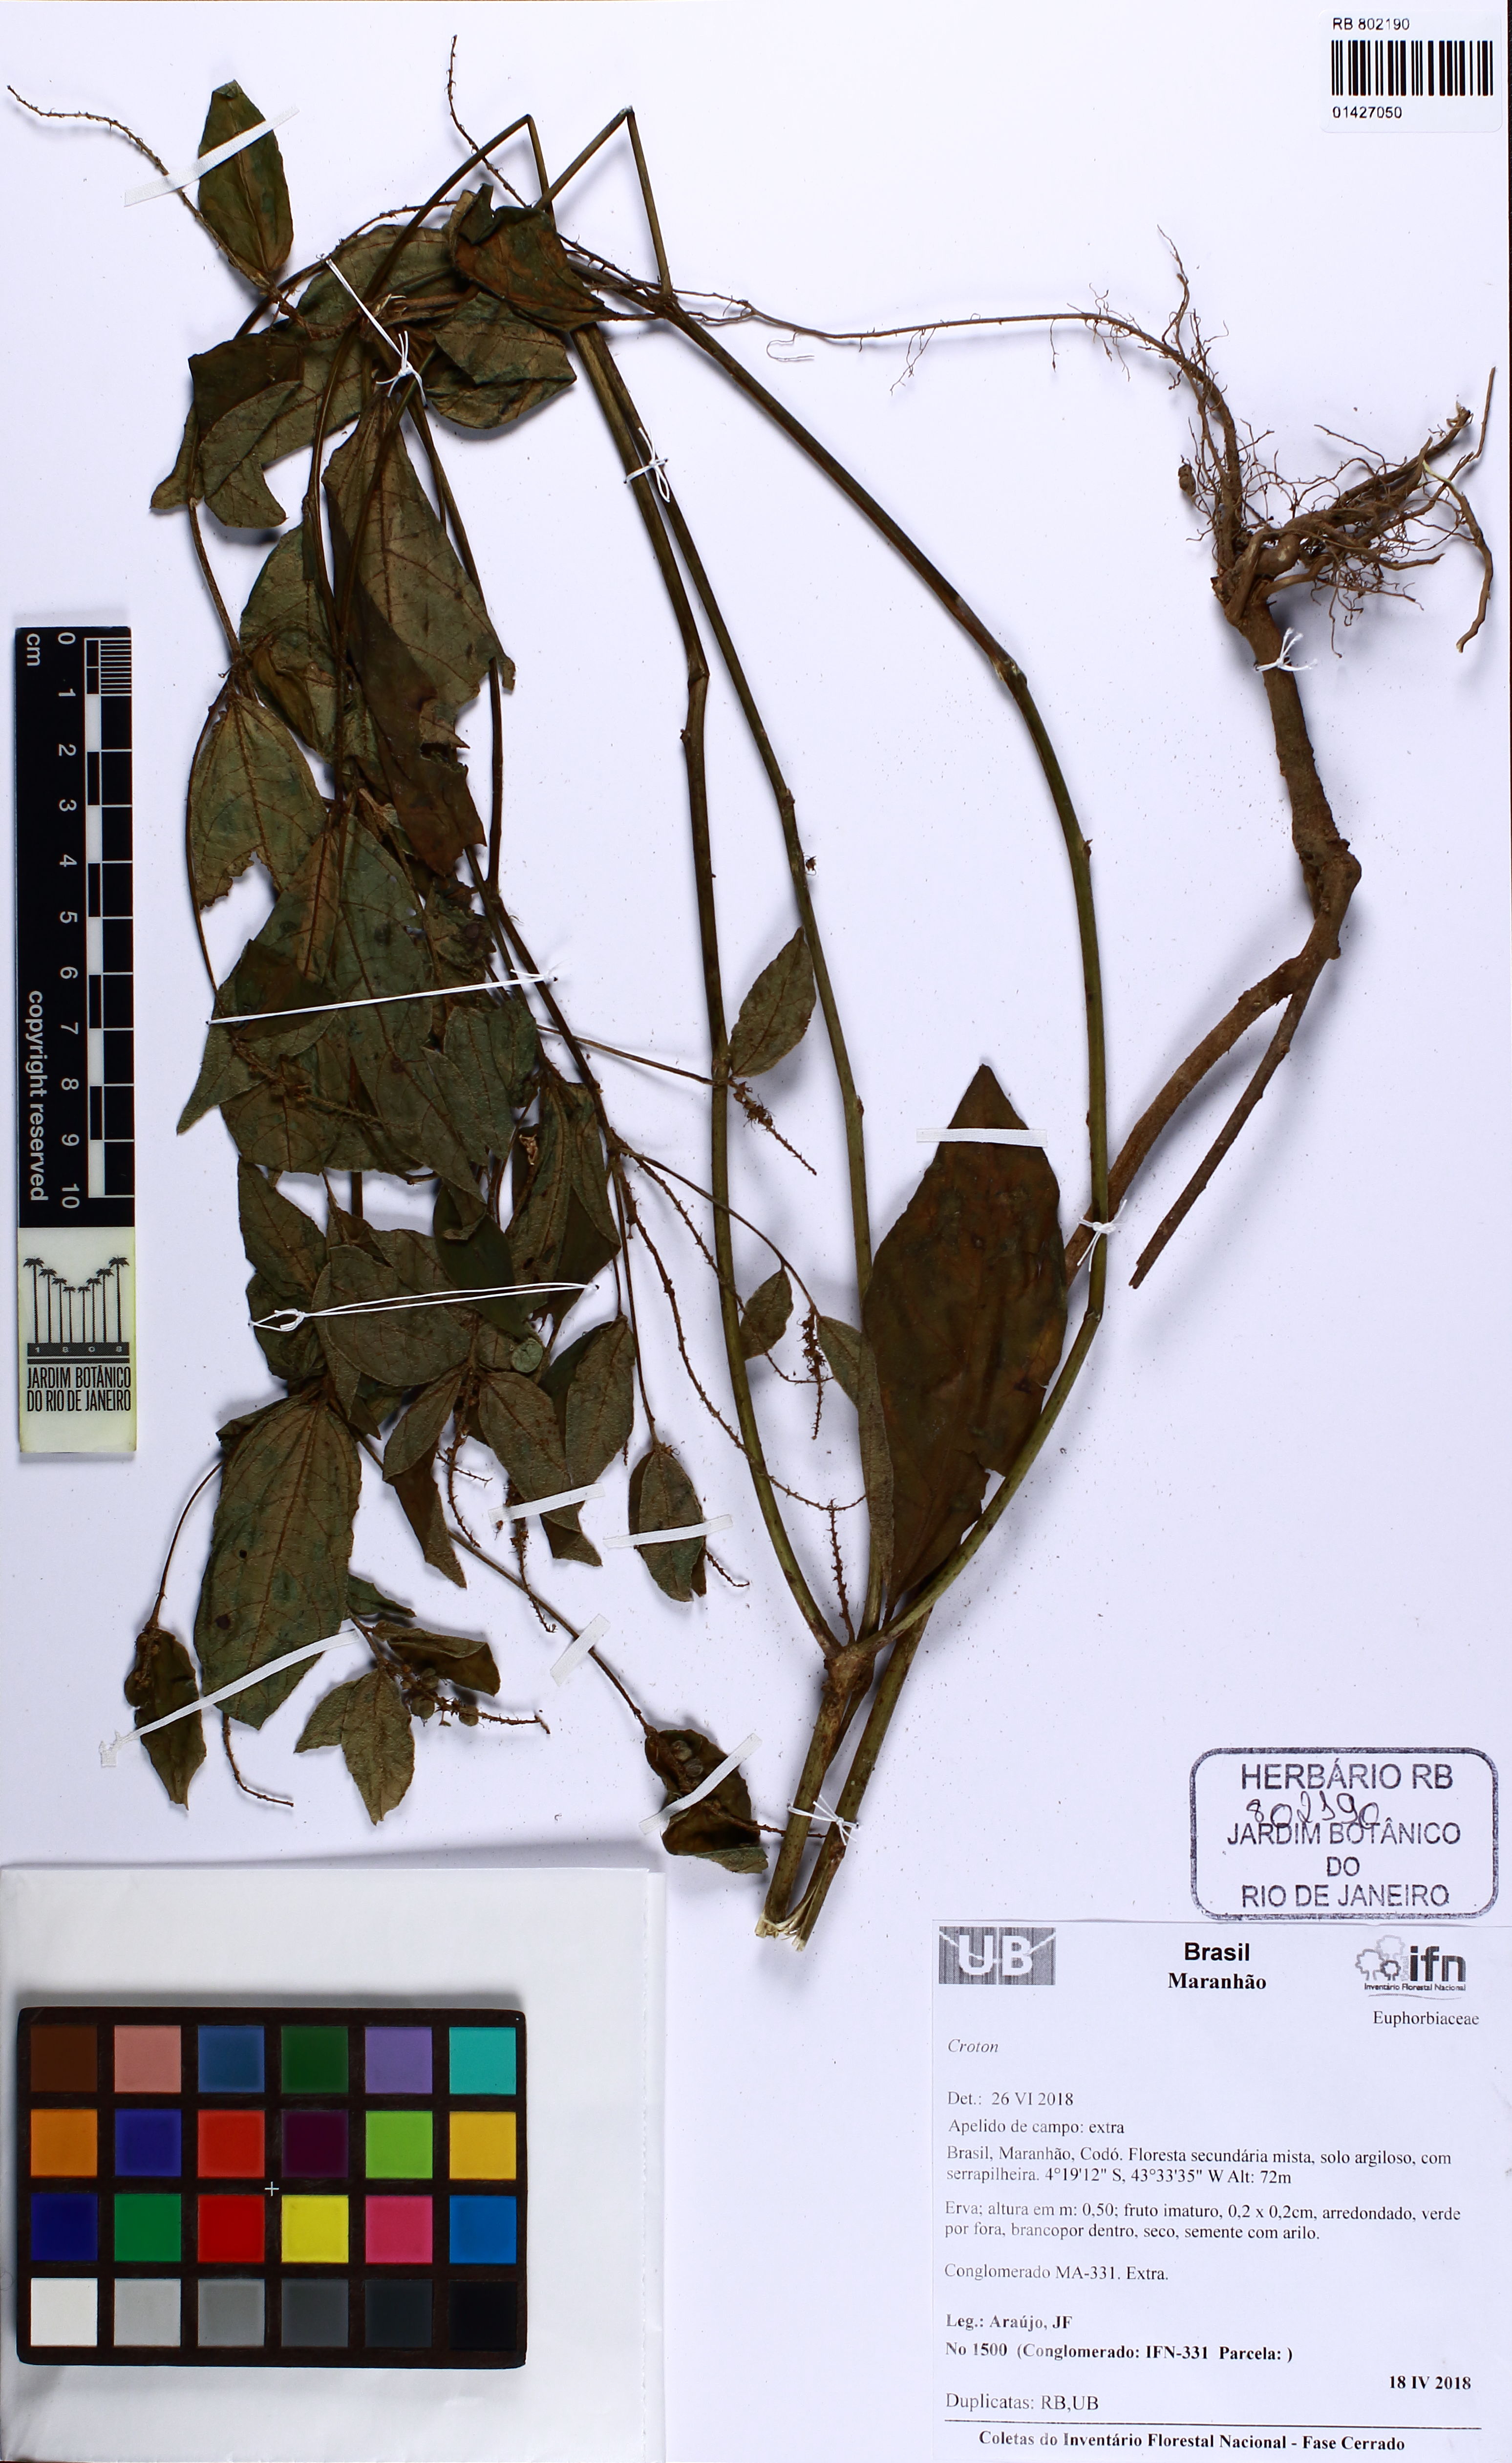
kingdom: Plantae
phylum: Tracheophyta
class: Magnoliopsida
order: Malpighiales
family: Euphorbiaceae
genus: Croton
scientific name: Croton
